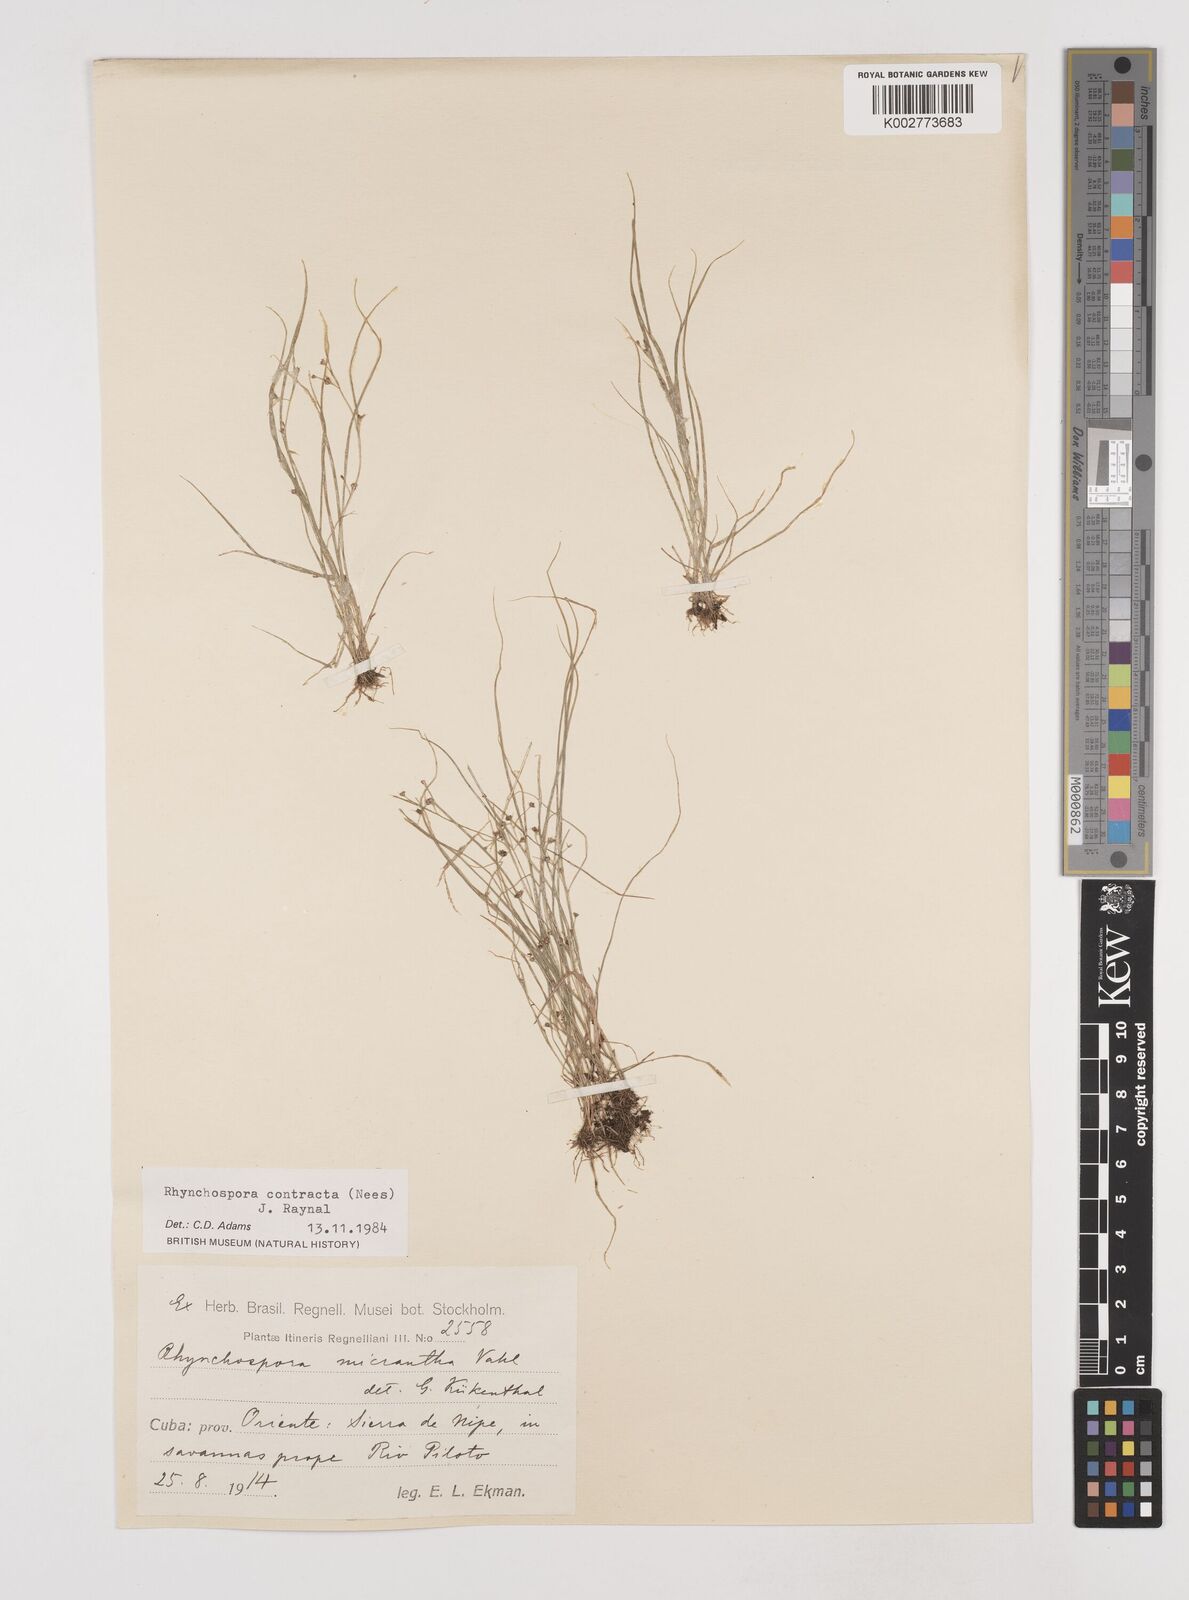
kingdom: Plantae
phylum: Tracheophyta
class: Liliopsida
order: Poales
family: Cyperaceae
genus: Rhynchospora
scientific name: Rhynchospora contracta
